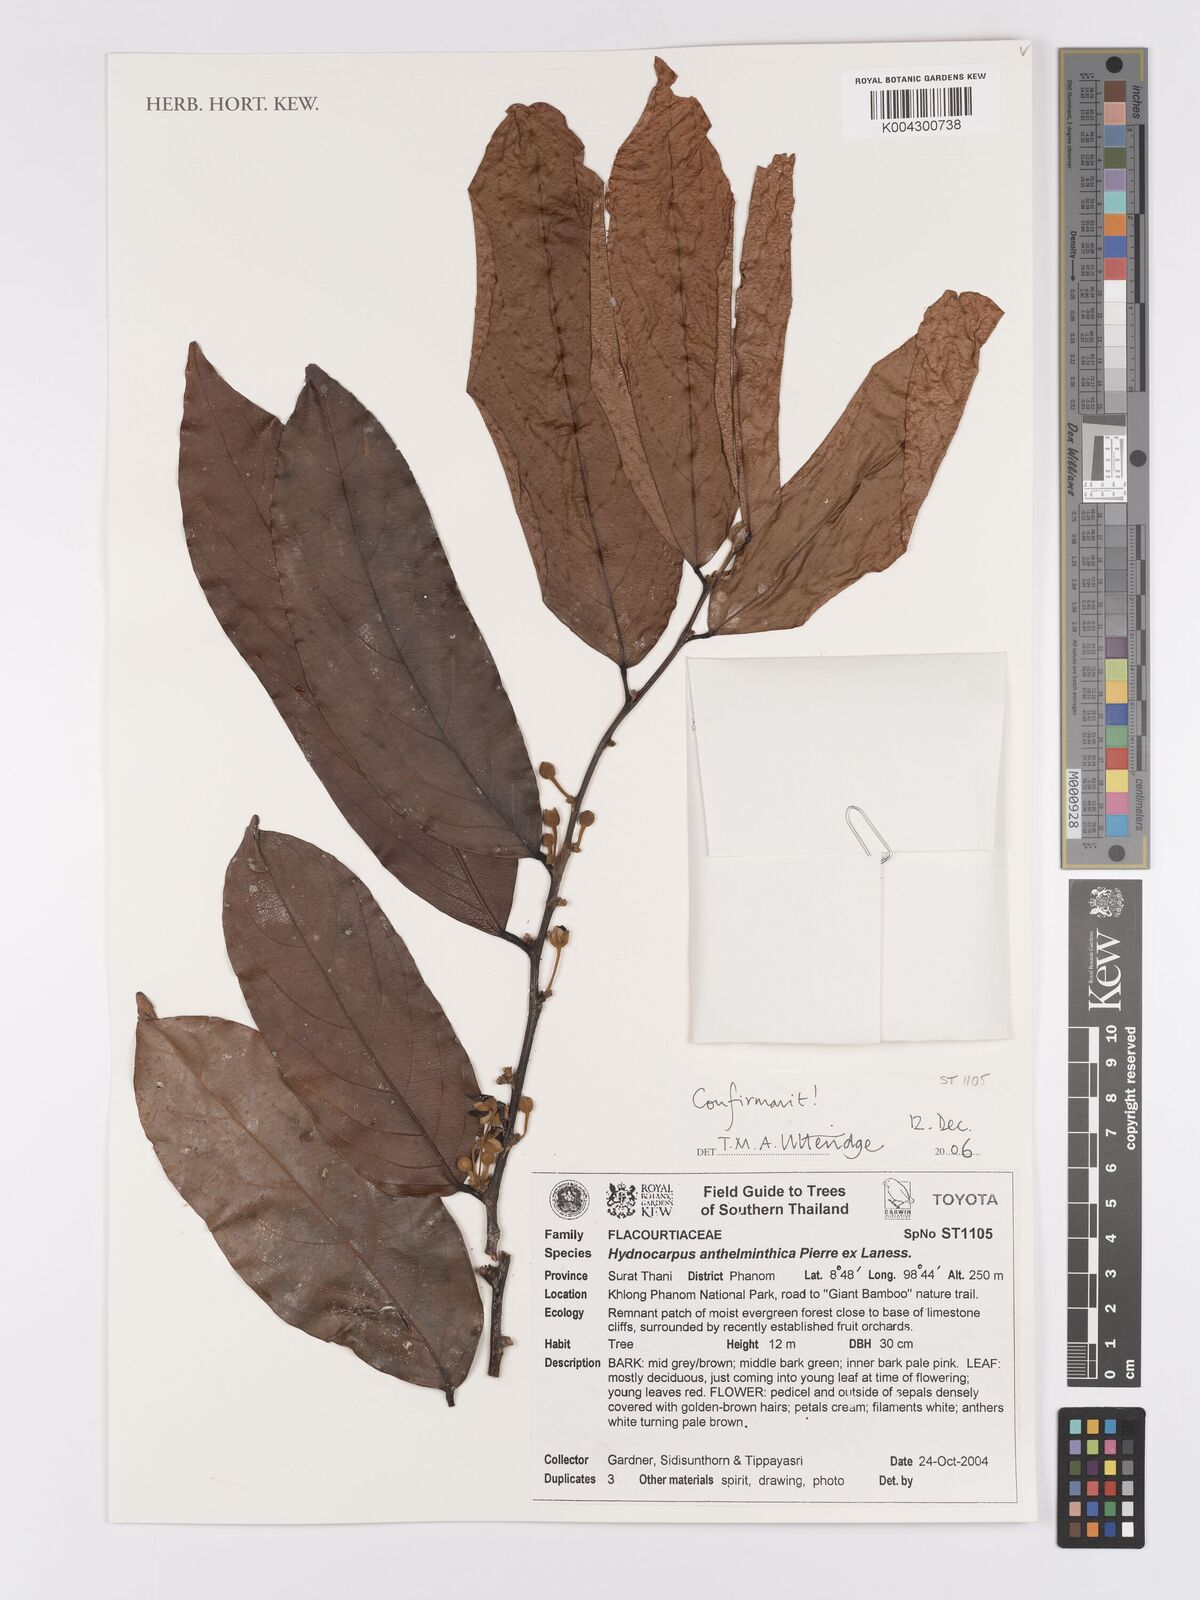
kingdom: Plantae
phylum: Tracheophyta
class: Magnoliopsida
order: Malpighiales
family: Achariaceae
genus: Hydnocarpus
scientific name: Hydnocarpus
